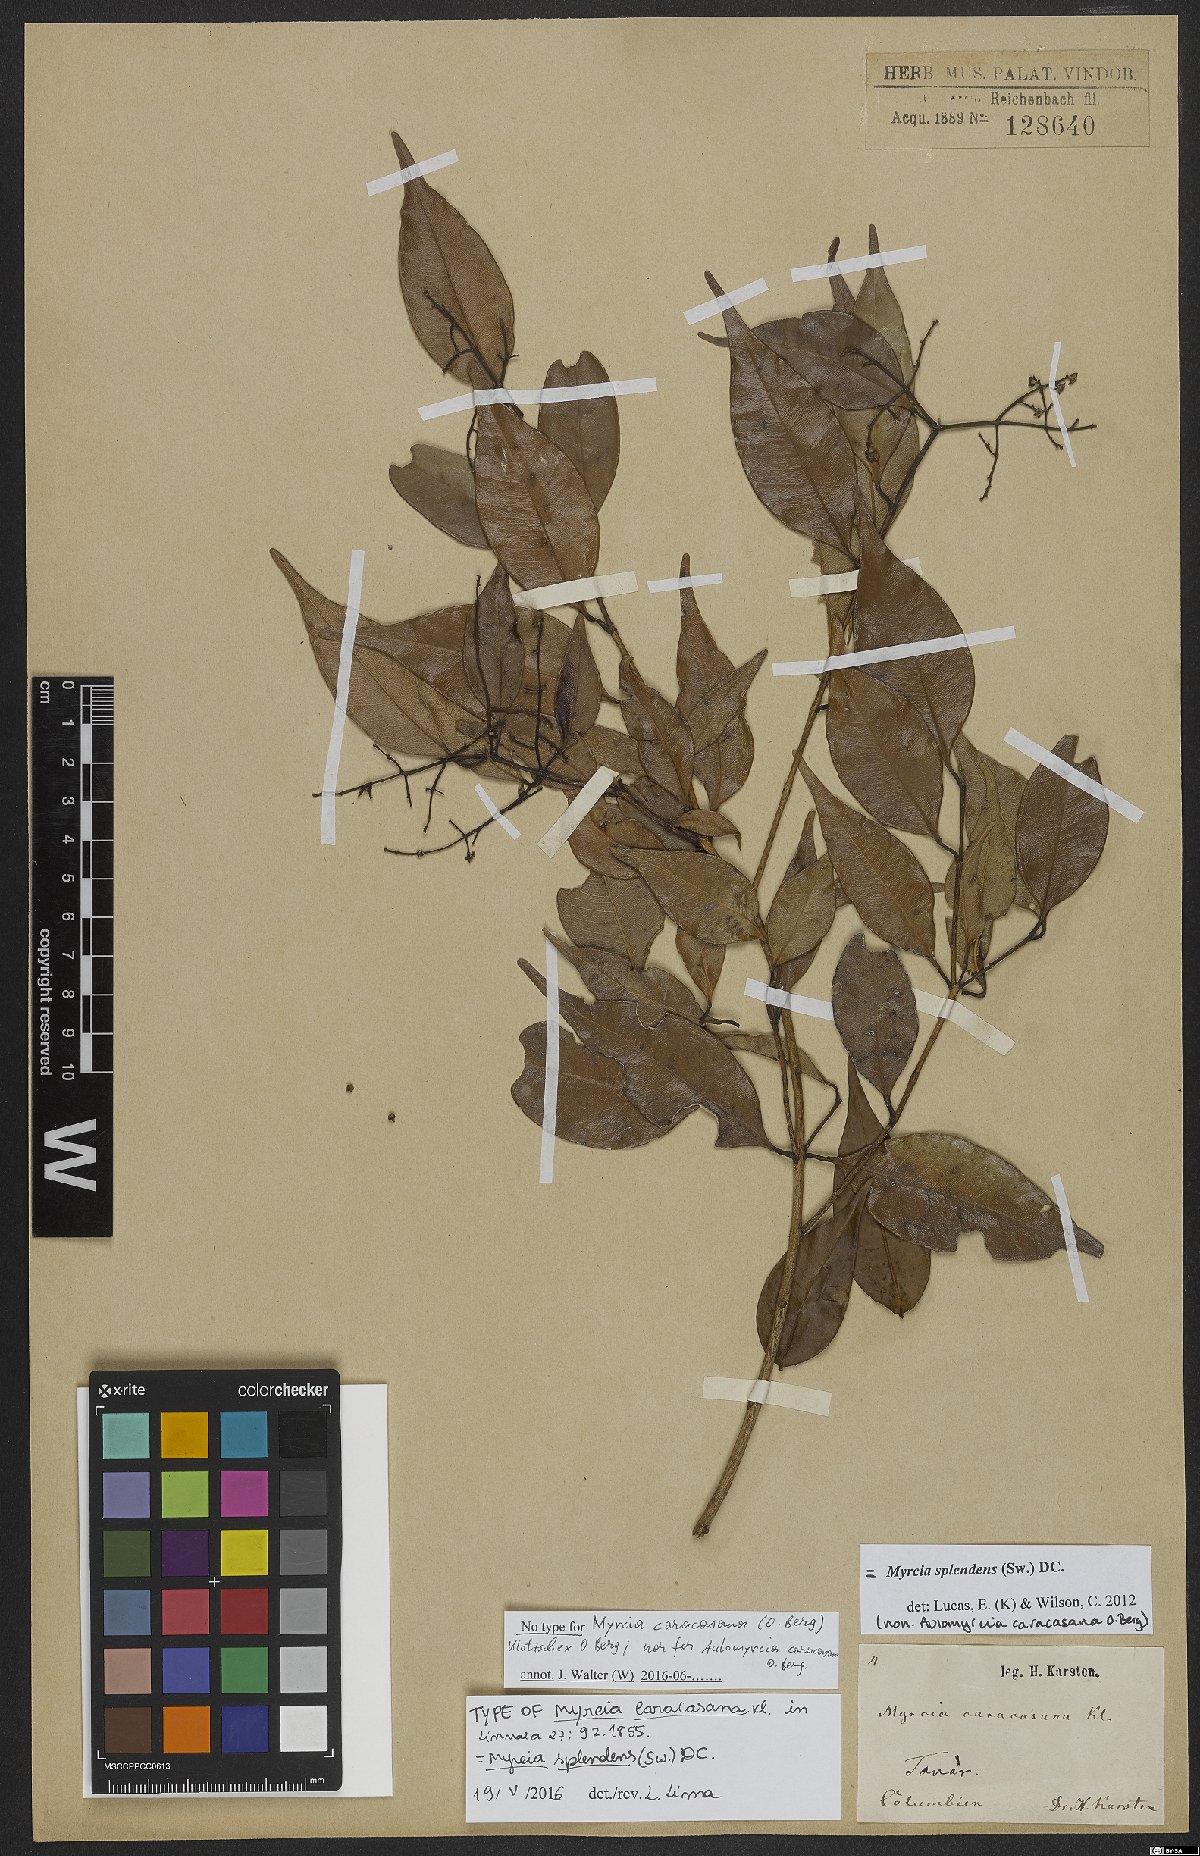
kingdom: Plantae
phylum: Tracheophyta
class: Magnoliopsida
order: Myrtales
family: Myrtaceae
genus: Myrcia
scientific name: Myrcia splendens
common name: Surinam cherry
